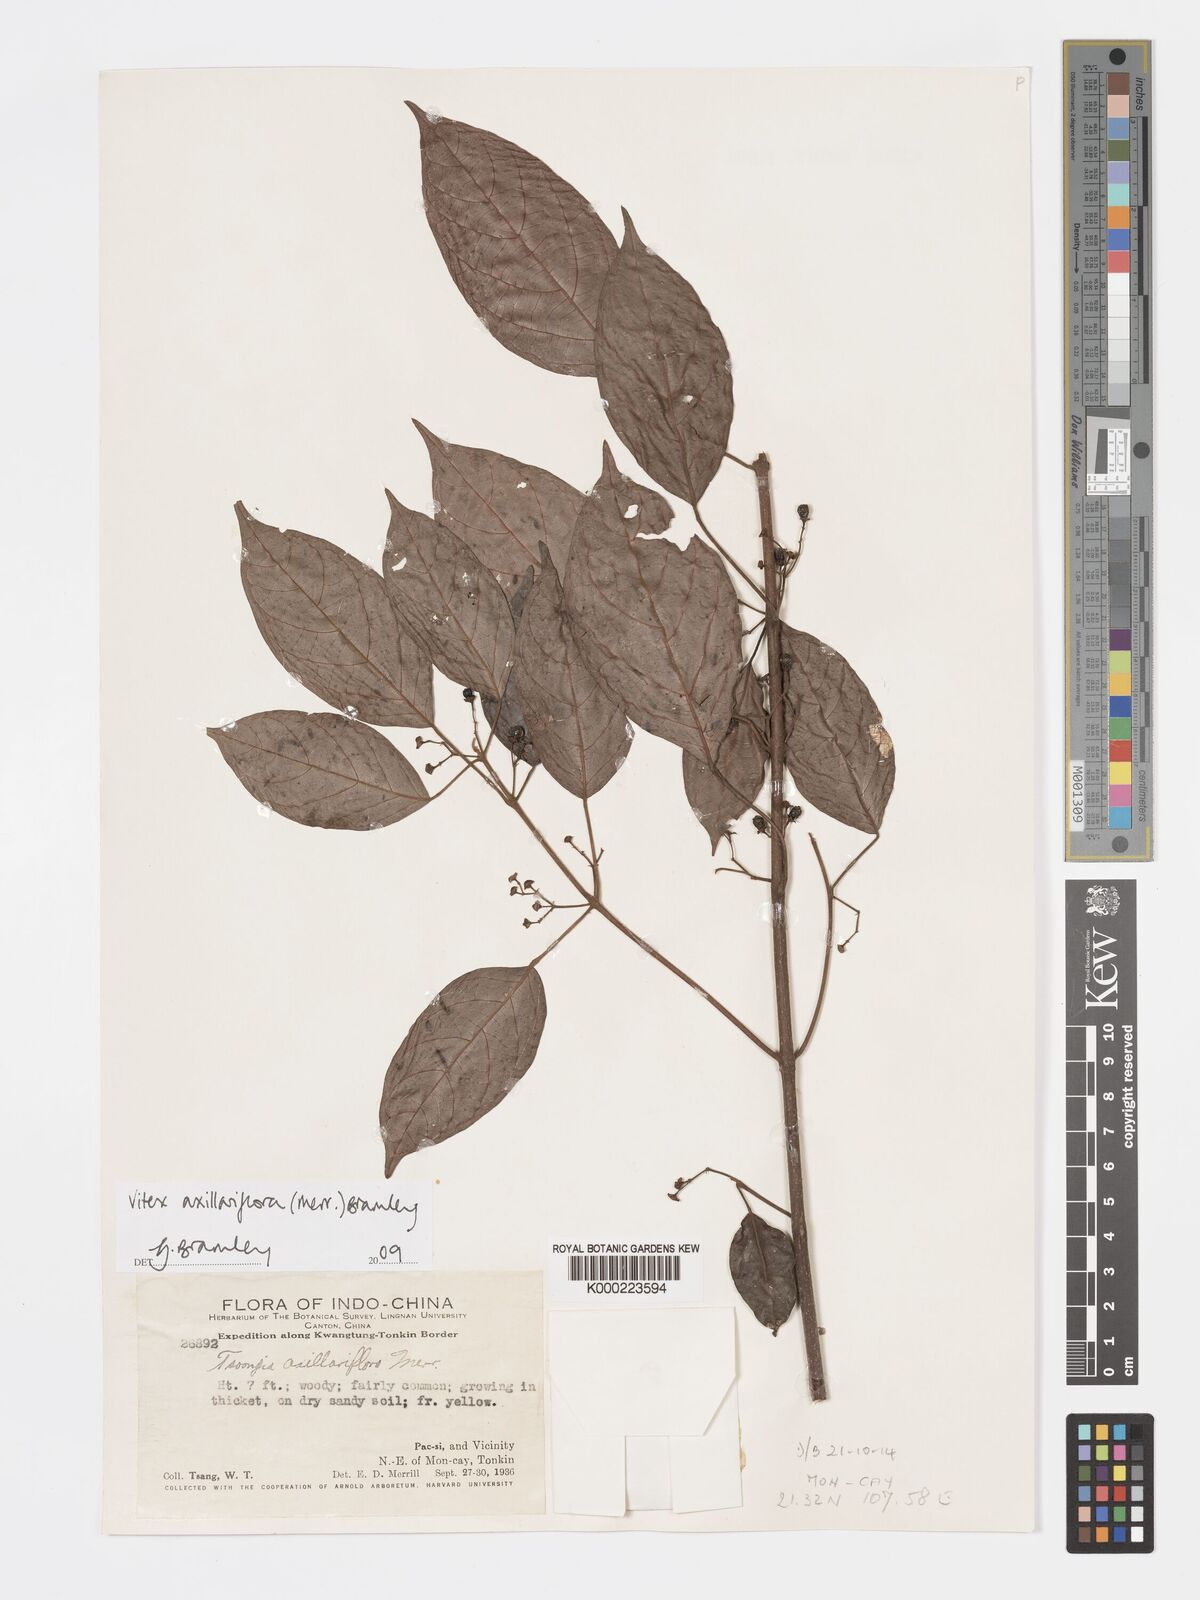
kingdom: Plantae
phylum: Tracheophyta
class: Magnoliopsida
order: Lamiales
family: Lamiaceae
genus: Vitex
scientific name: Vitex axillariflora
